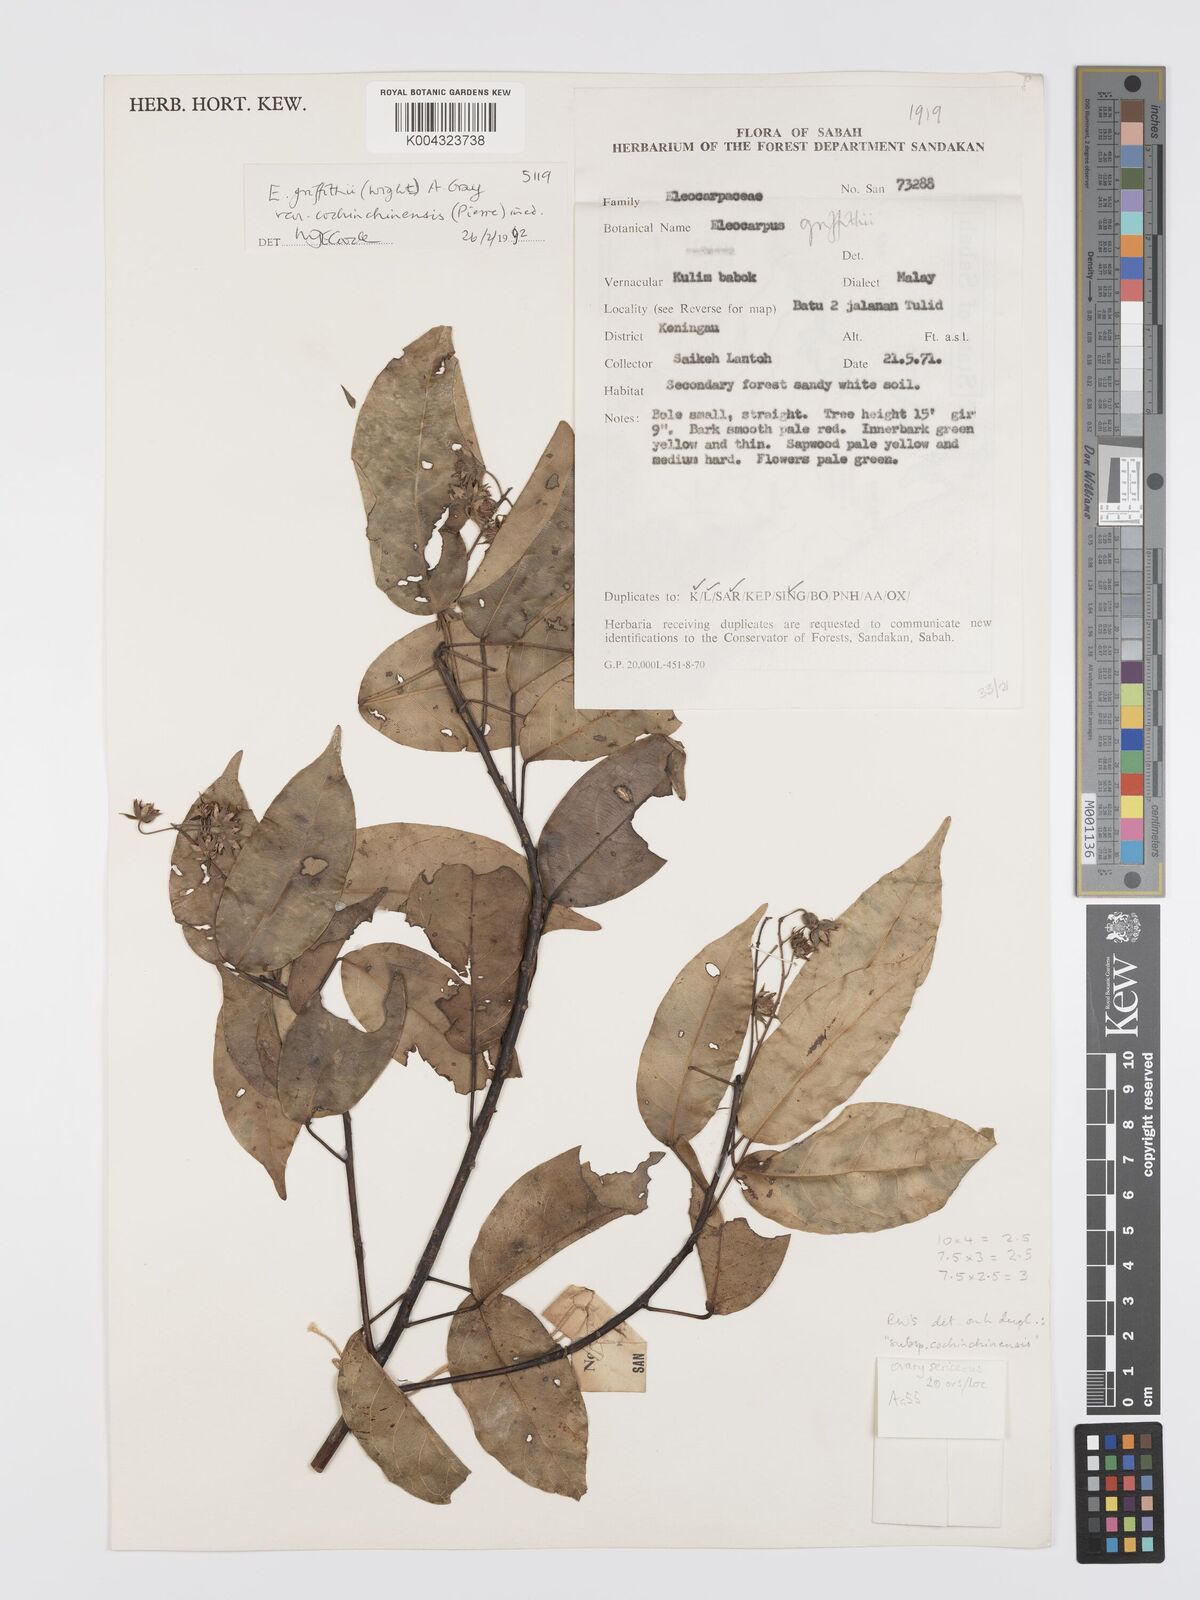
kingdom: Plantae
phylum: Tracheophyta
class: Magnoliopsida
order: Oxalidales
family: Elaeocarpaceae
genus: Elaeocarpus
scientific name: Elaeocarpus griffithii
